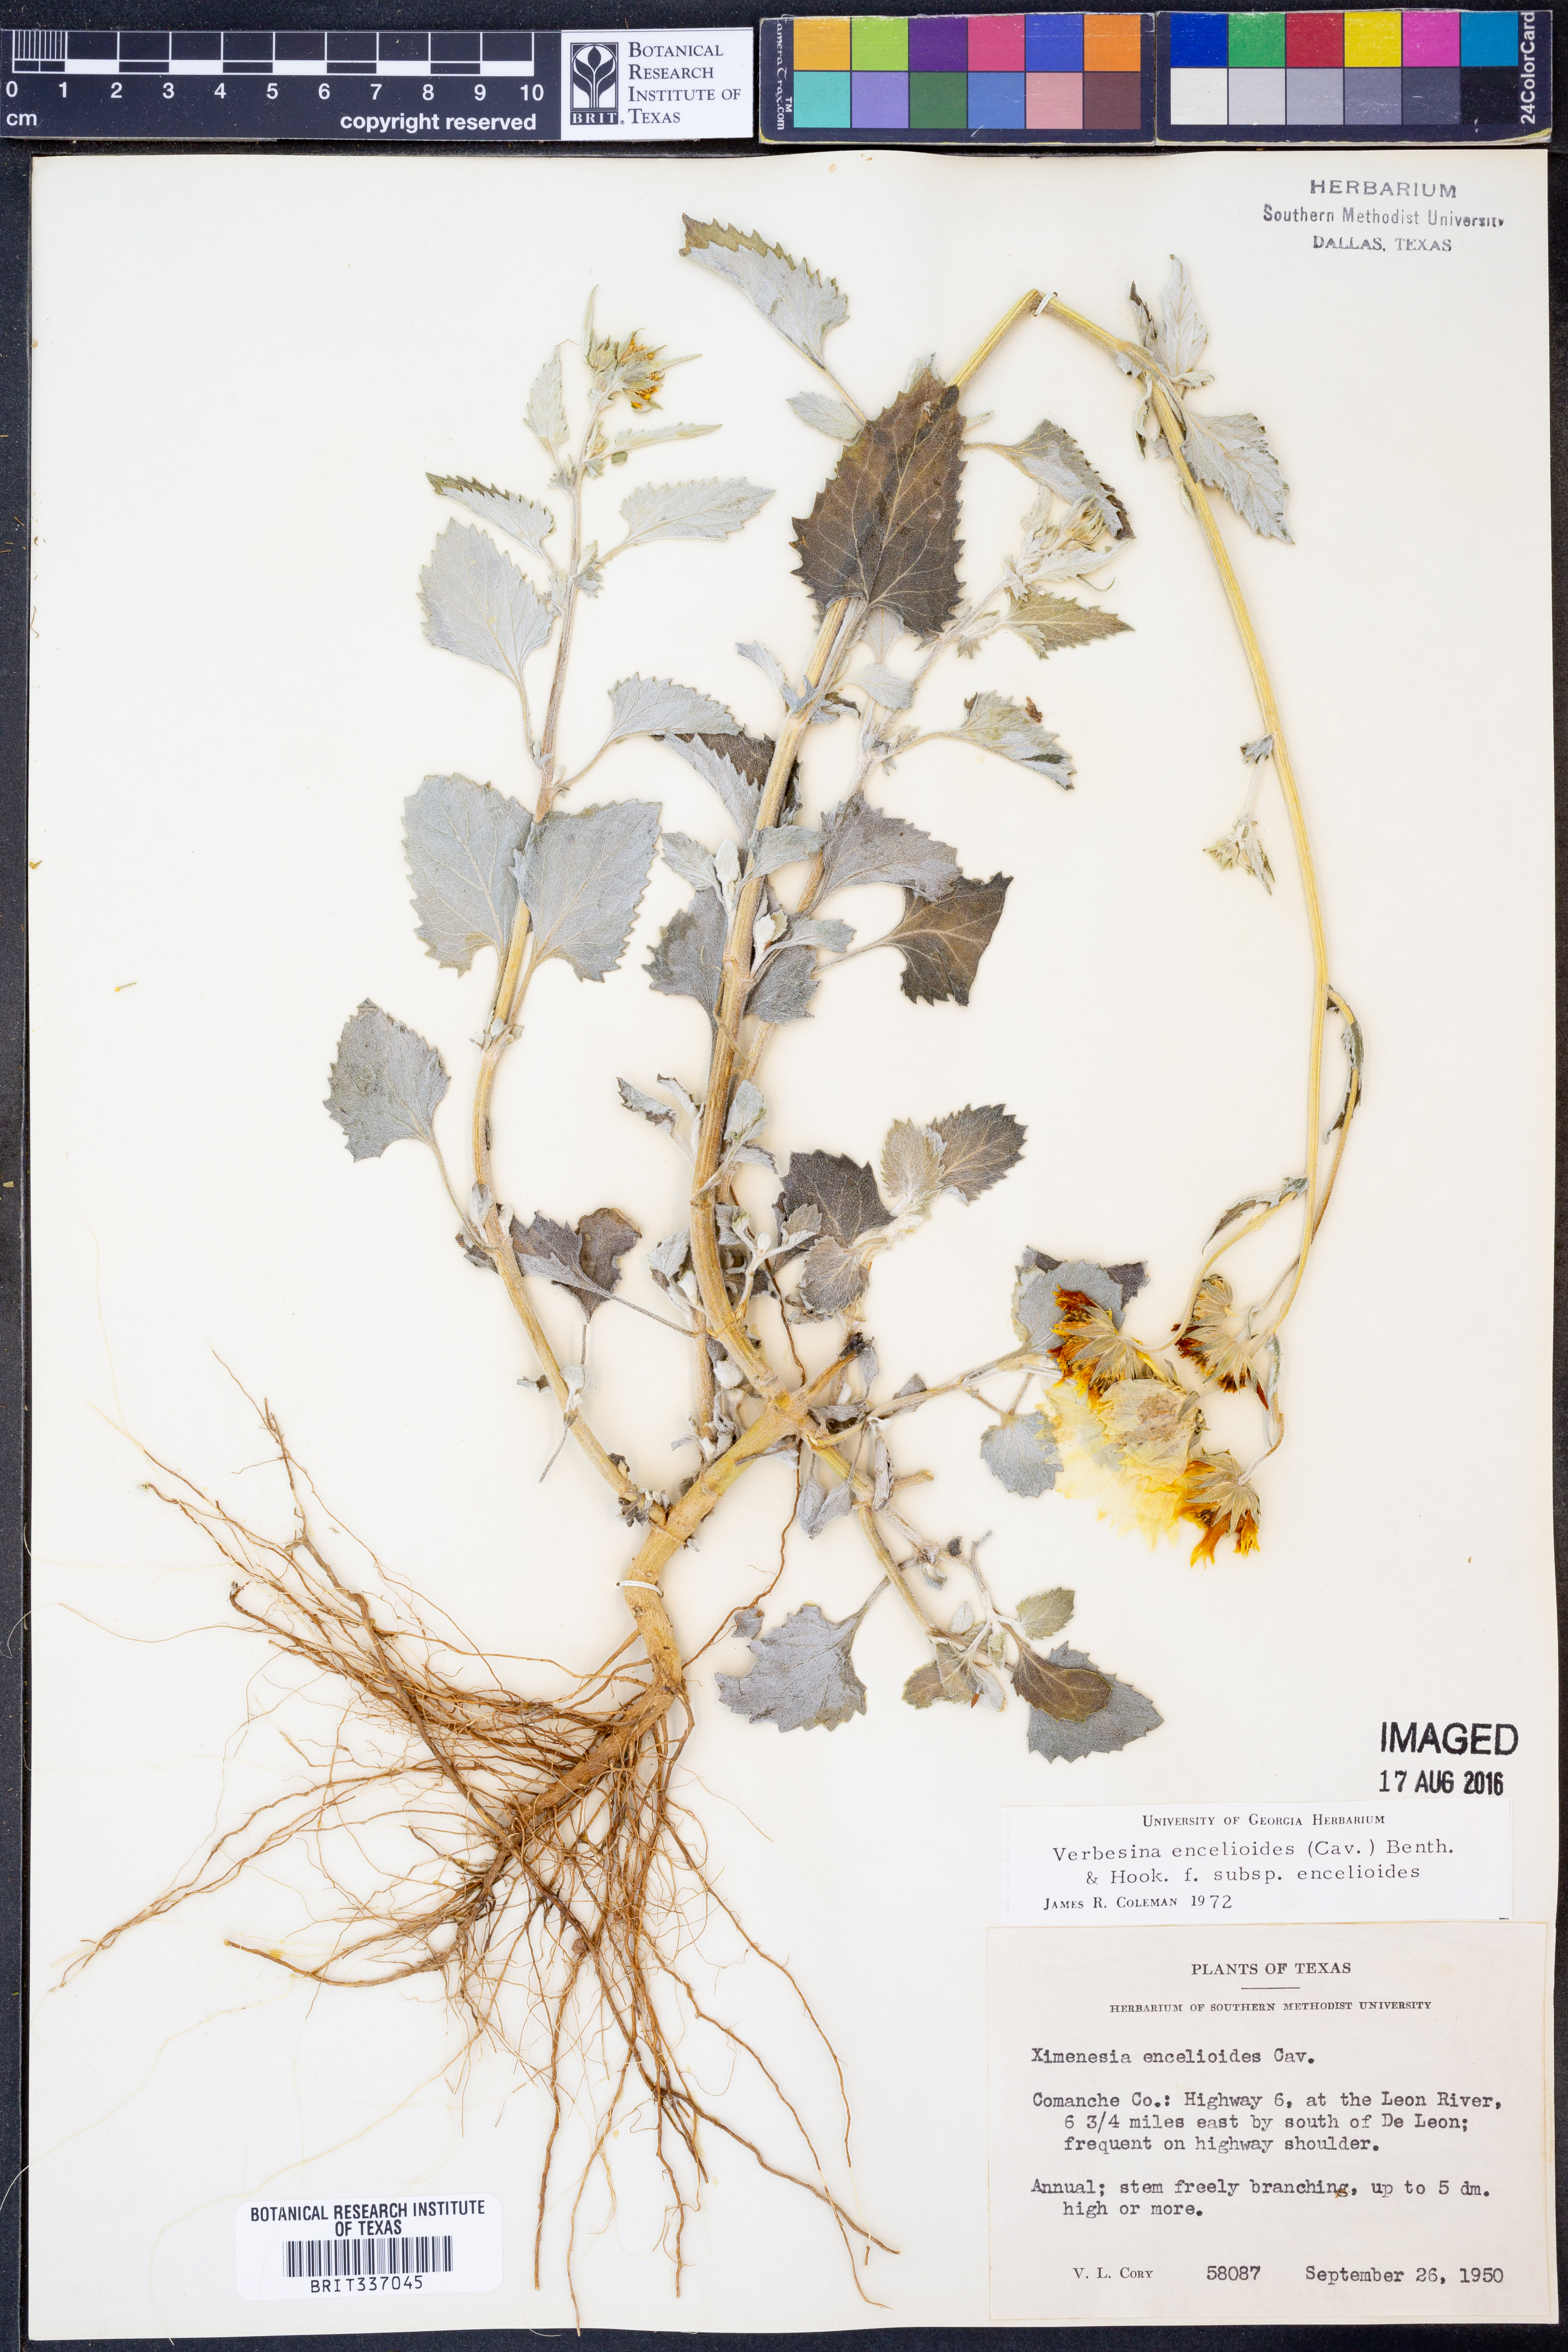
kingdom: Plantae
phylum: Tracheophyta
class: Magnoliopsida
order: Asterales
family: Asteraceae
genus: Verbesina
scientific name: Verbesina encelioides
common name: Golden crownbeard
